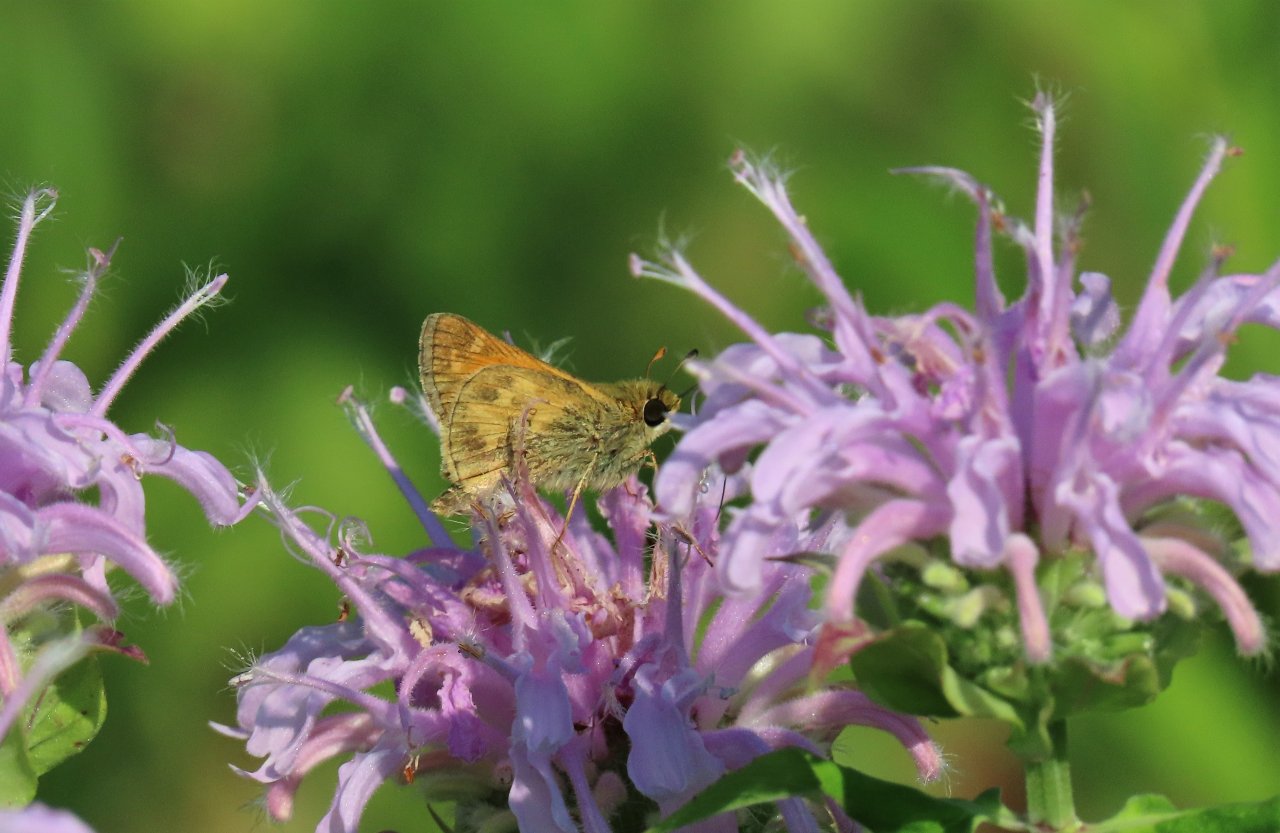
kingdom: Animalia
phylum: Arthropoda
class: Insecta
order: Lepidoptera
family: Hesperiidae
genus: Atalopedes
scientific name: Atalopedes campestris
